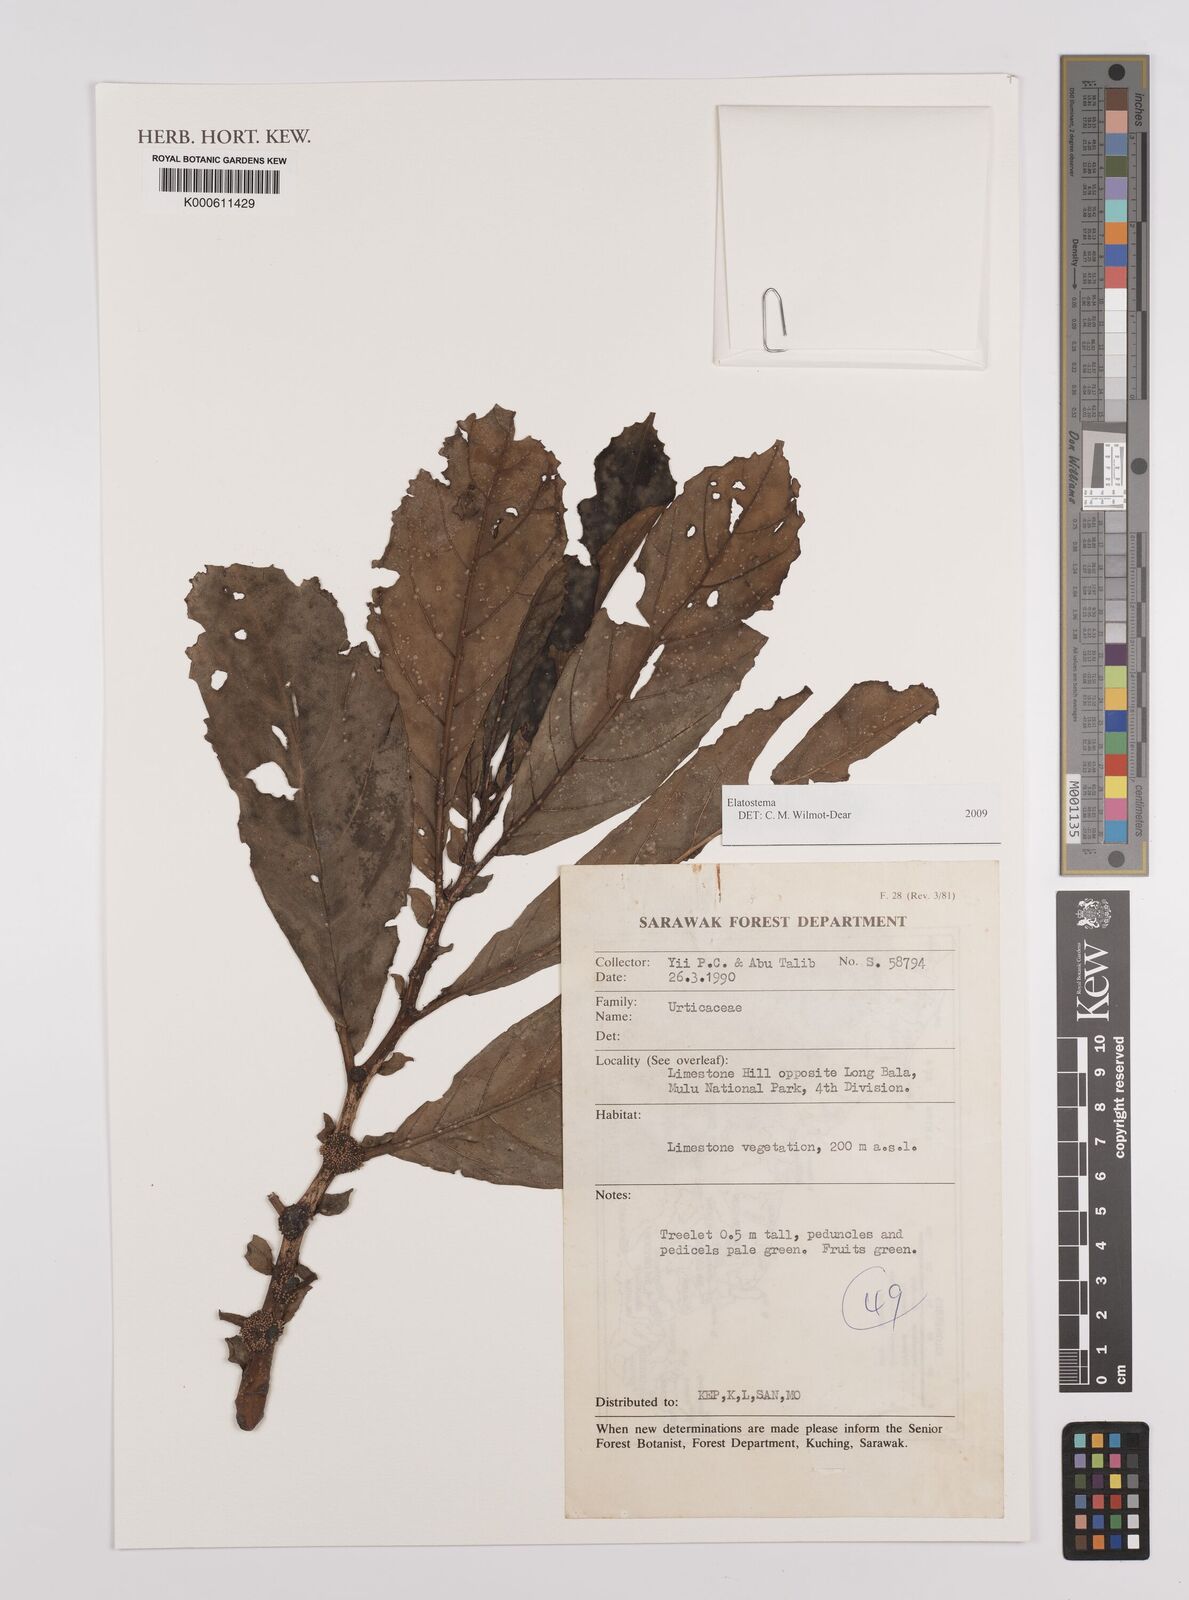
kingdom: Plantae
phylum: Tracheophyta
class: Magnoliopsida
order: Rosales
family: Urticaceae
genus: Elatostema
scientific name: Elatostema
